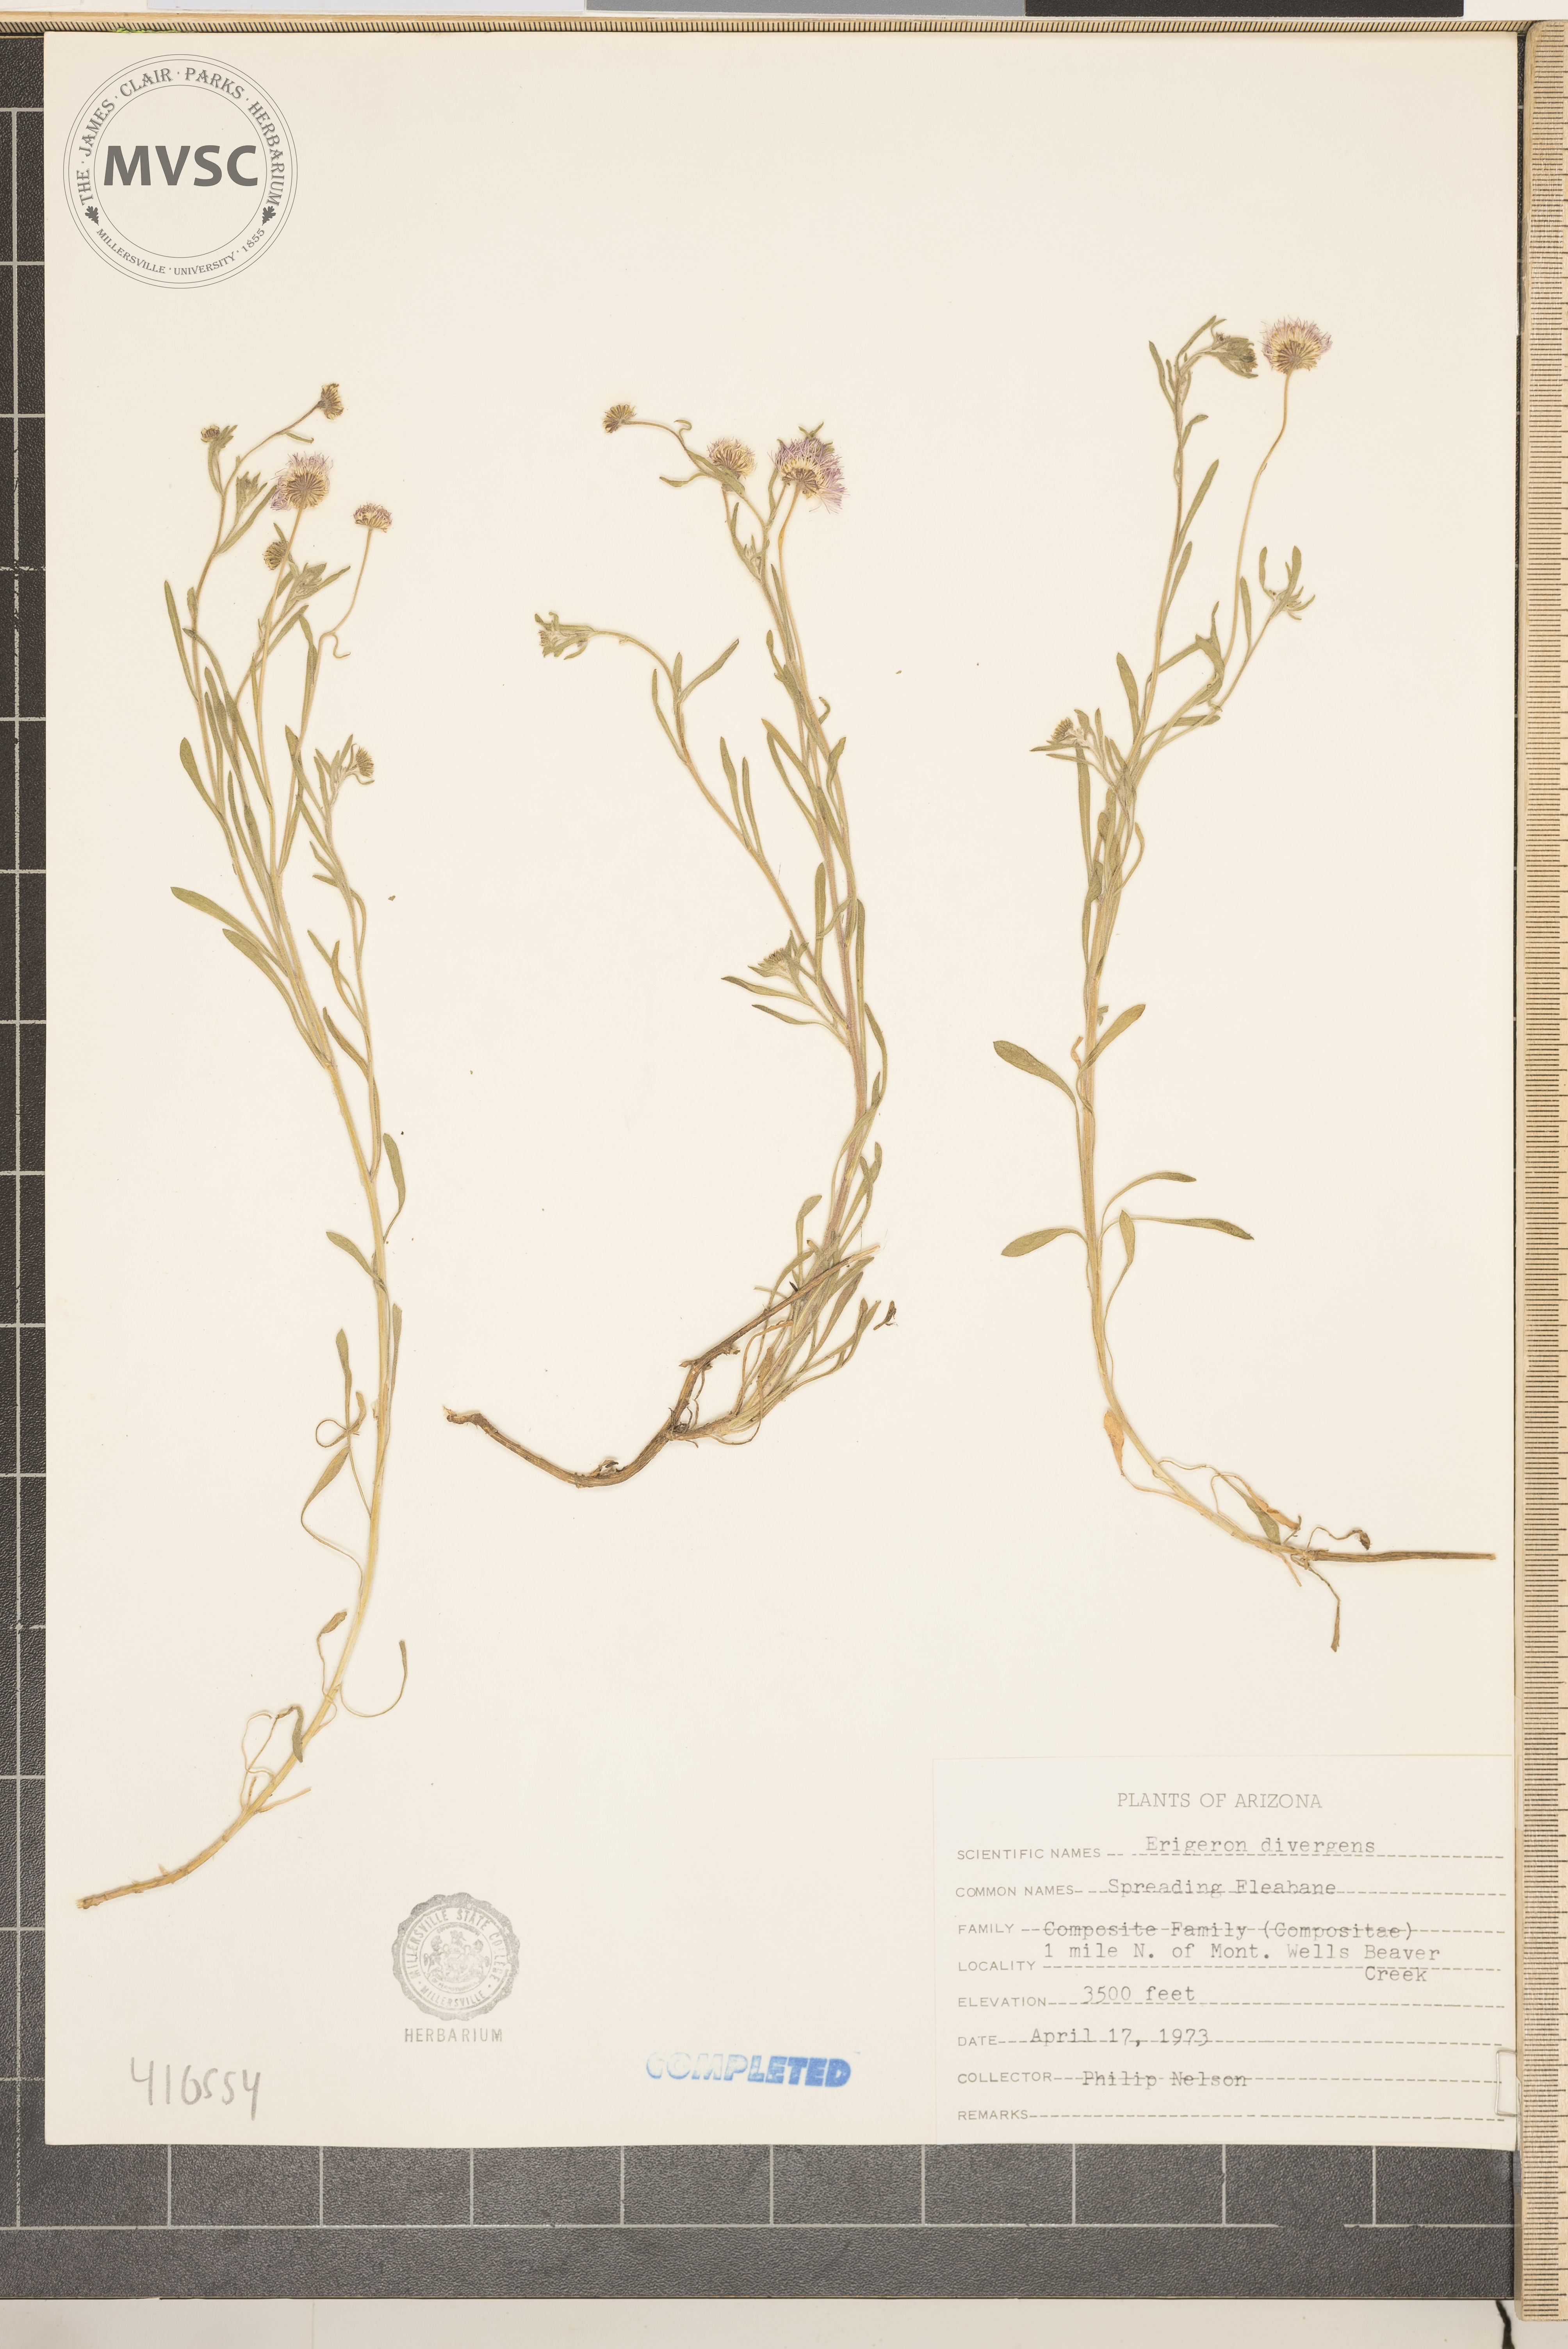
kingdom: Plantae
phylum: Tracheophyta
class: Magnoliopsida
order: Asterales
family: Asteraceae
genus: Erigeron
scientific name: Erigeron divergens
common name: Diffuse fleabane
